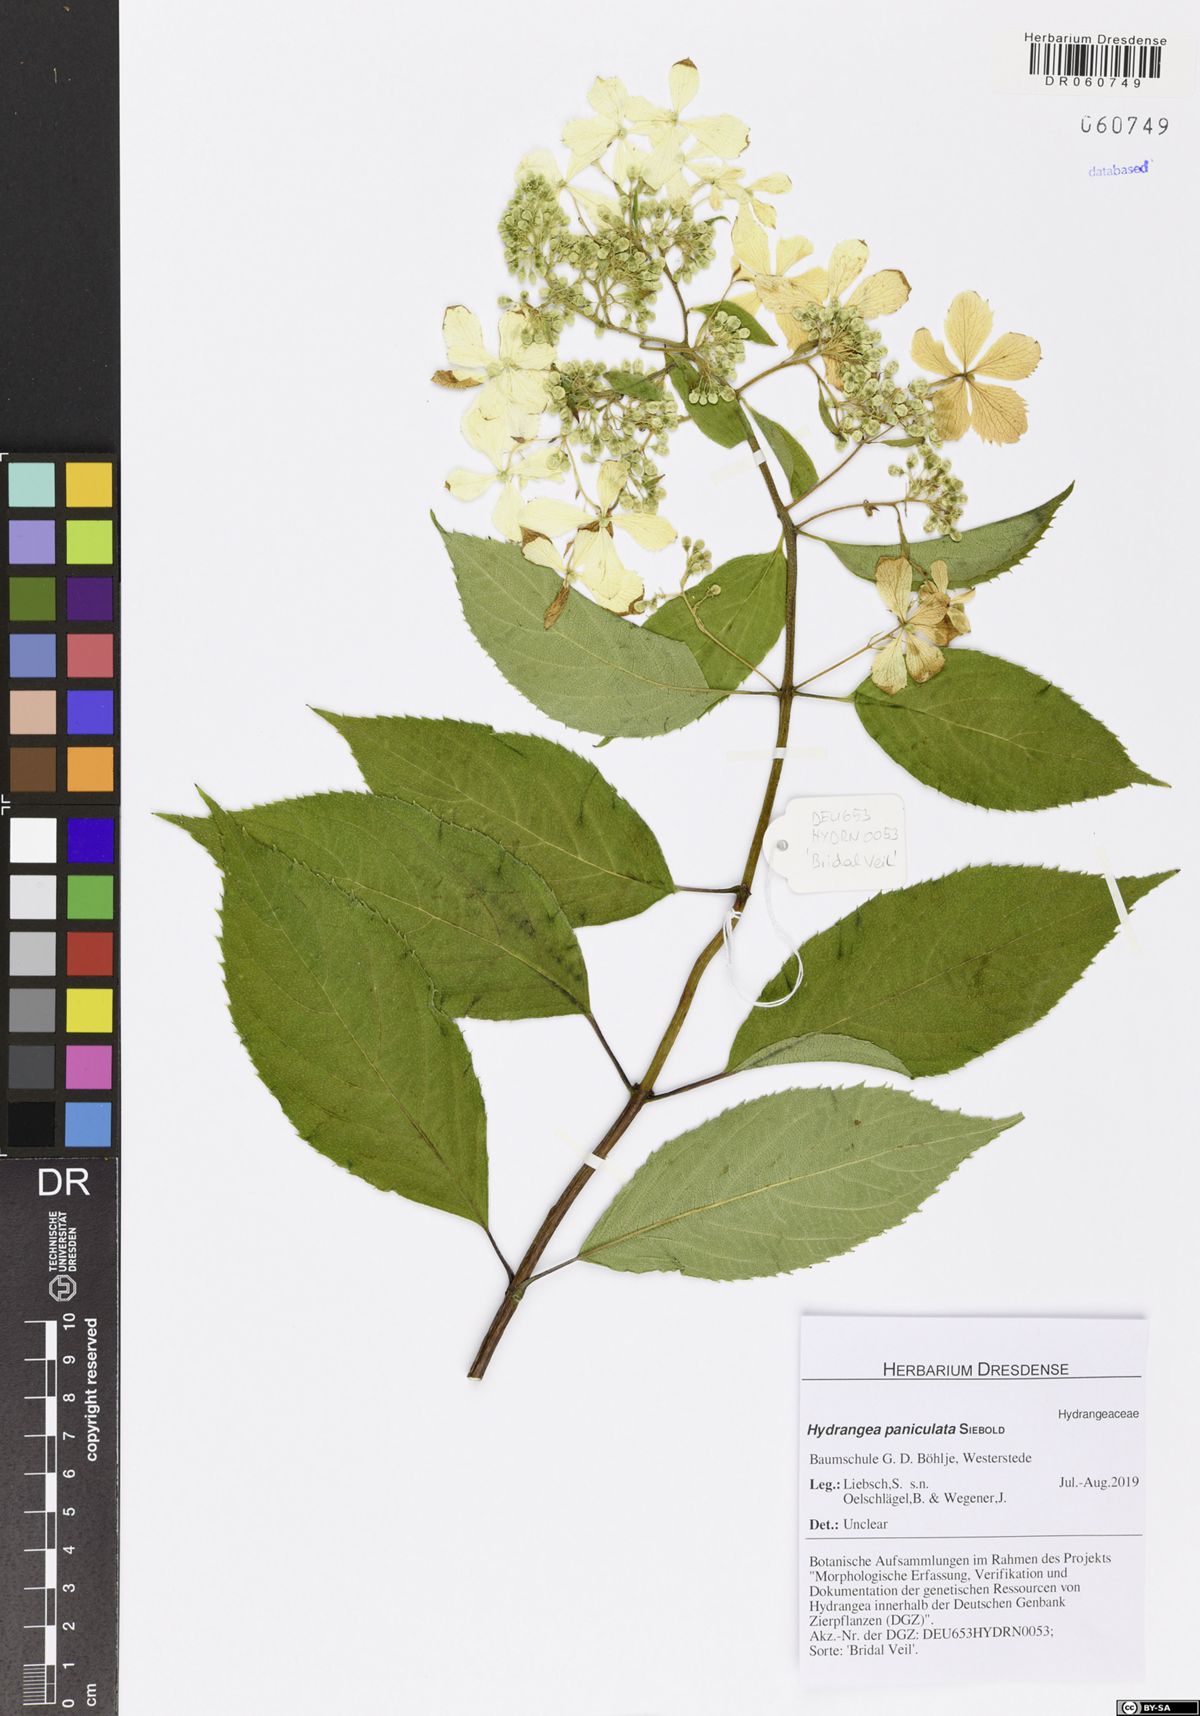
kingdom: Plantae
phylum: Tracheophyta
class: Magnoliopsida
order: Cornales
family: Hydrangeaceae
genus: Hydrangea
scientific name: Hydrangea paniculata
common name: Panicled hydrangea
